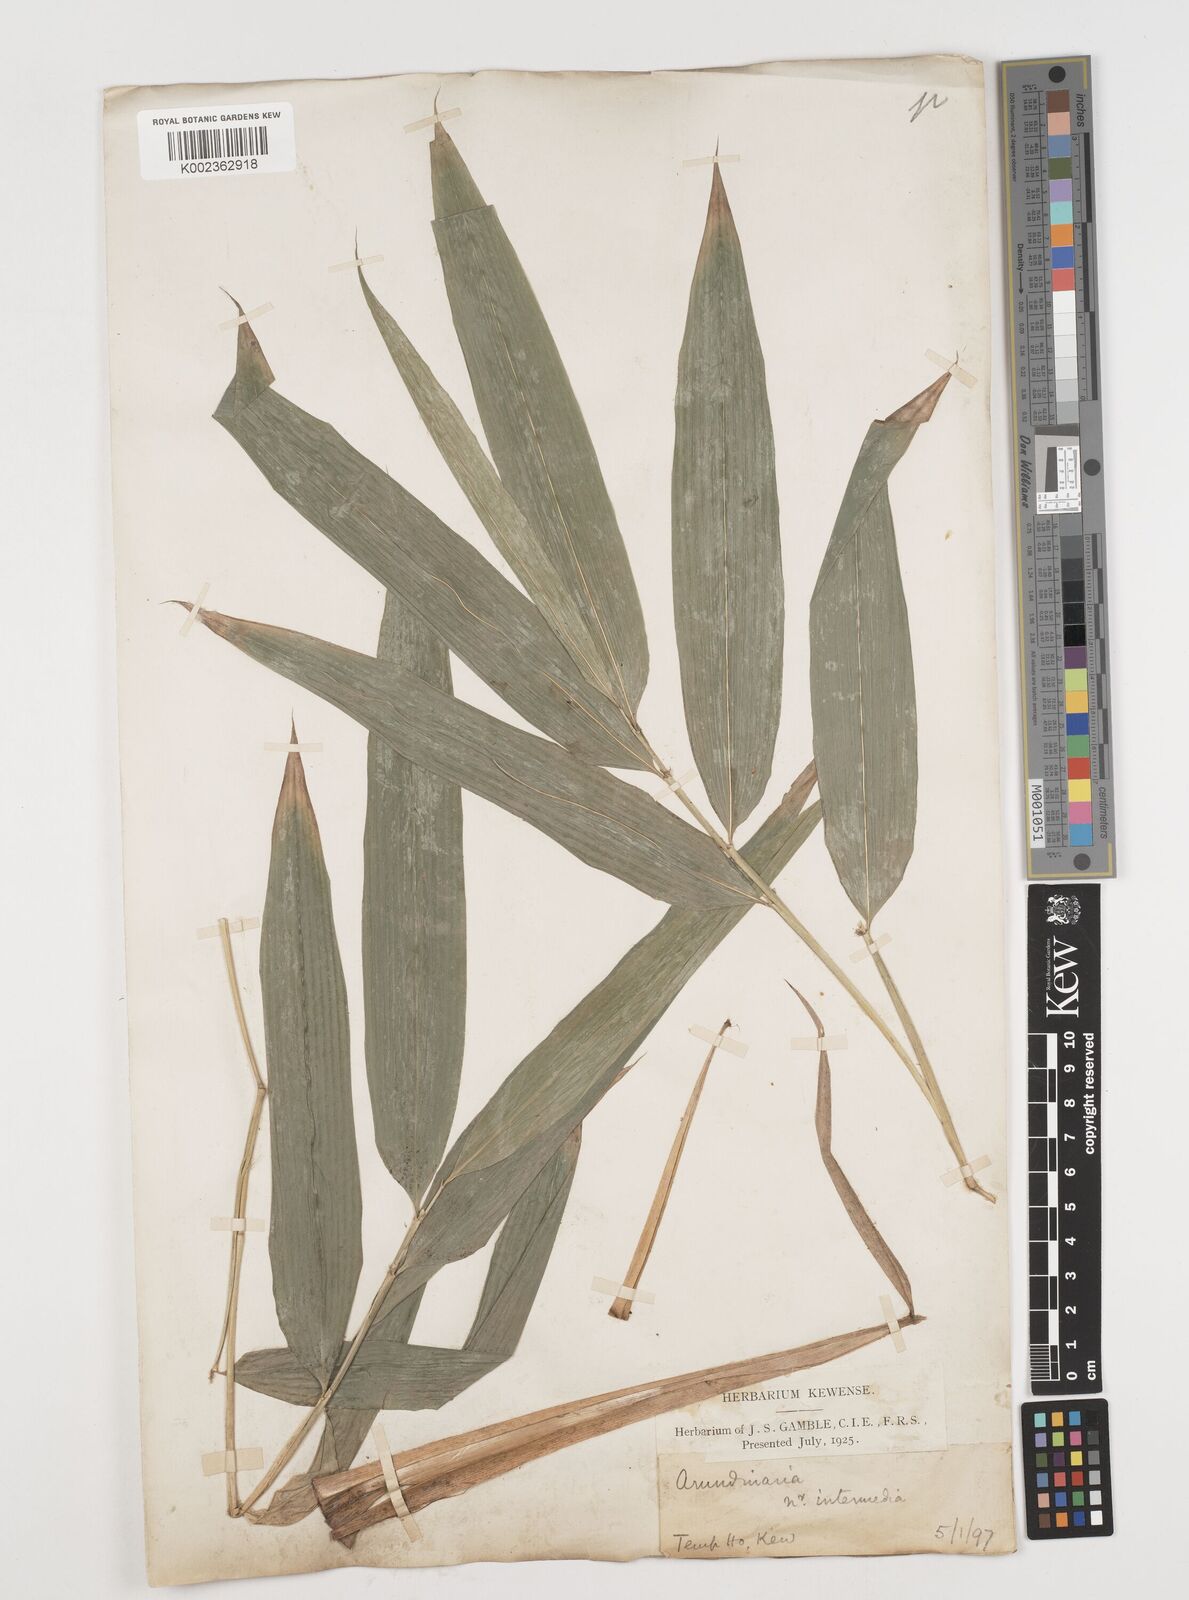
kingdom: Plantae
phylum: Tracheophyta
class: Liliopsida
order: Poales
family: Poaceae
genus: Drepanostachyum
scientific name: Drepanostachyum intermedium
